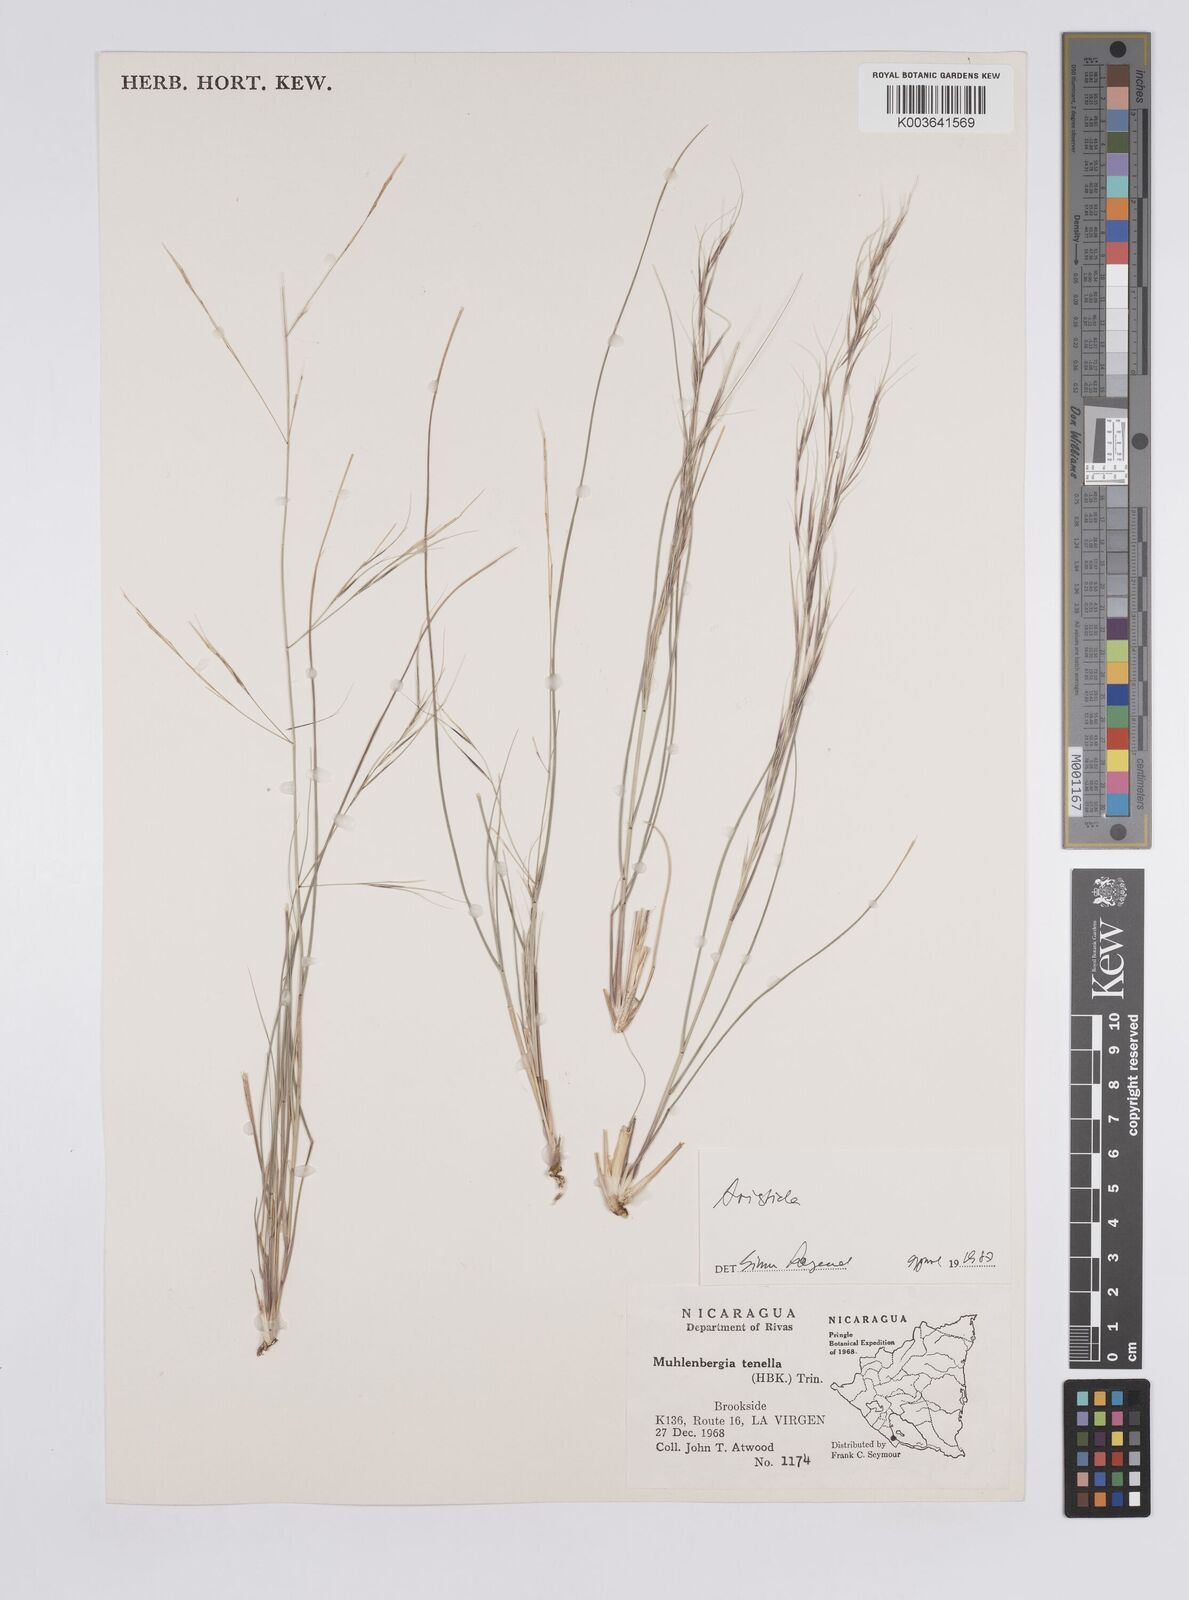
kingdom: Plantae
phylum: Tracheophyta
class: Liliopsida
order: Poales
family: Poaceae
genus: Aristida
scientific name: Aristida
